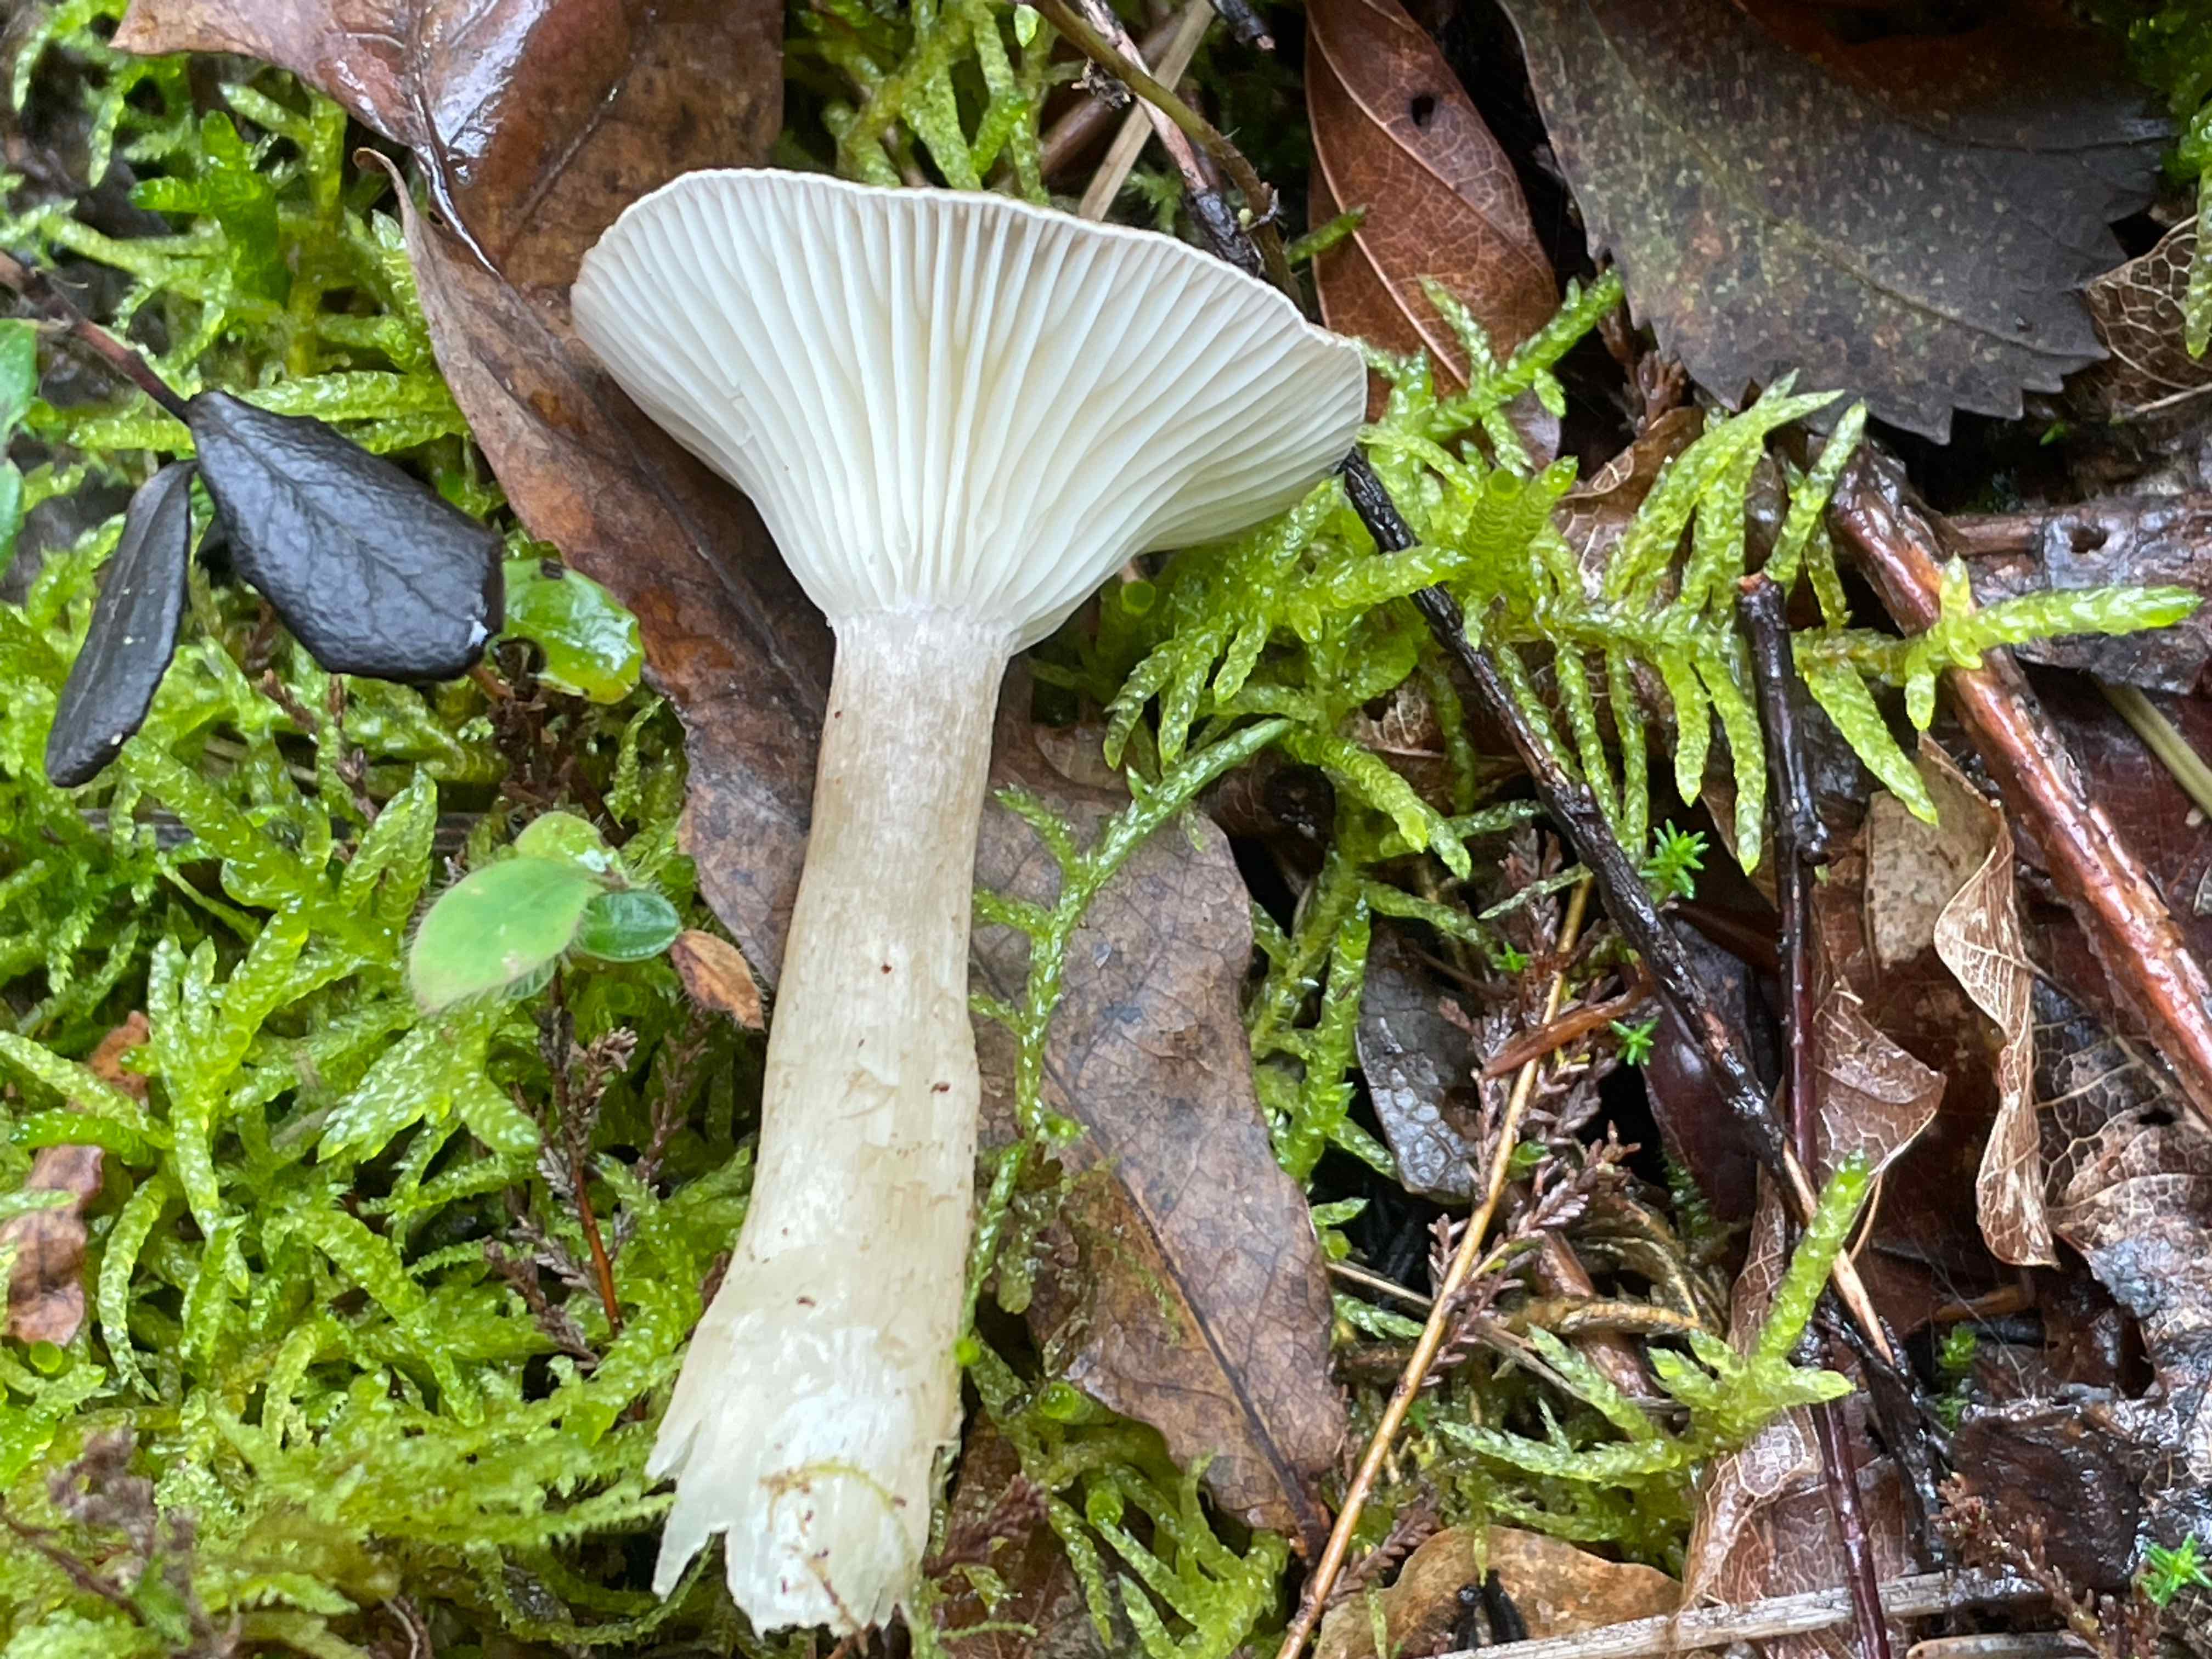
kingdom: Fungi
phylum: Basidiomycota
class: Agaricomycetes
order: Agaricales
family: Hygrophoraceae
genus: Ampulloclitocybe
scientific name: Ampulloclitocybe clavipes
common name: køllefod
